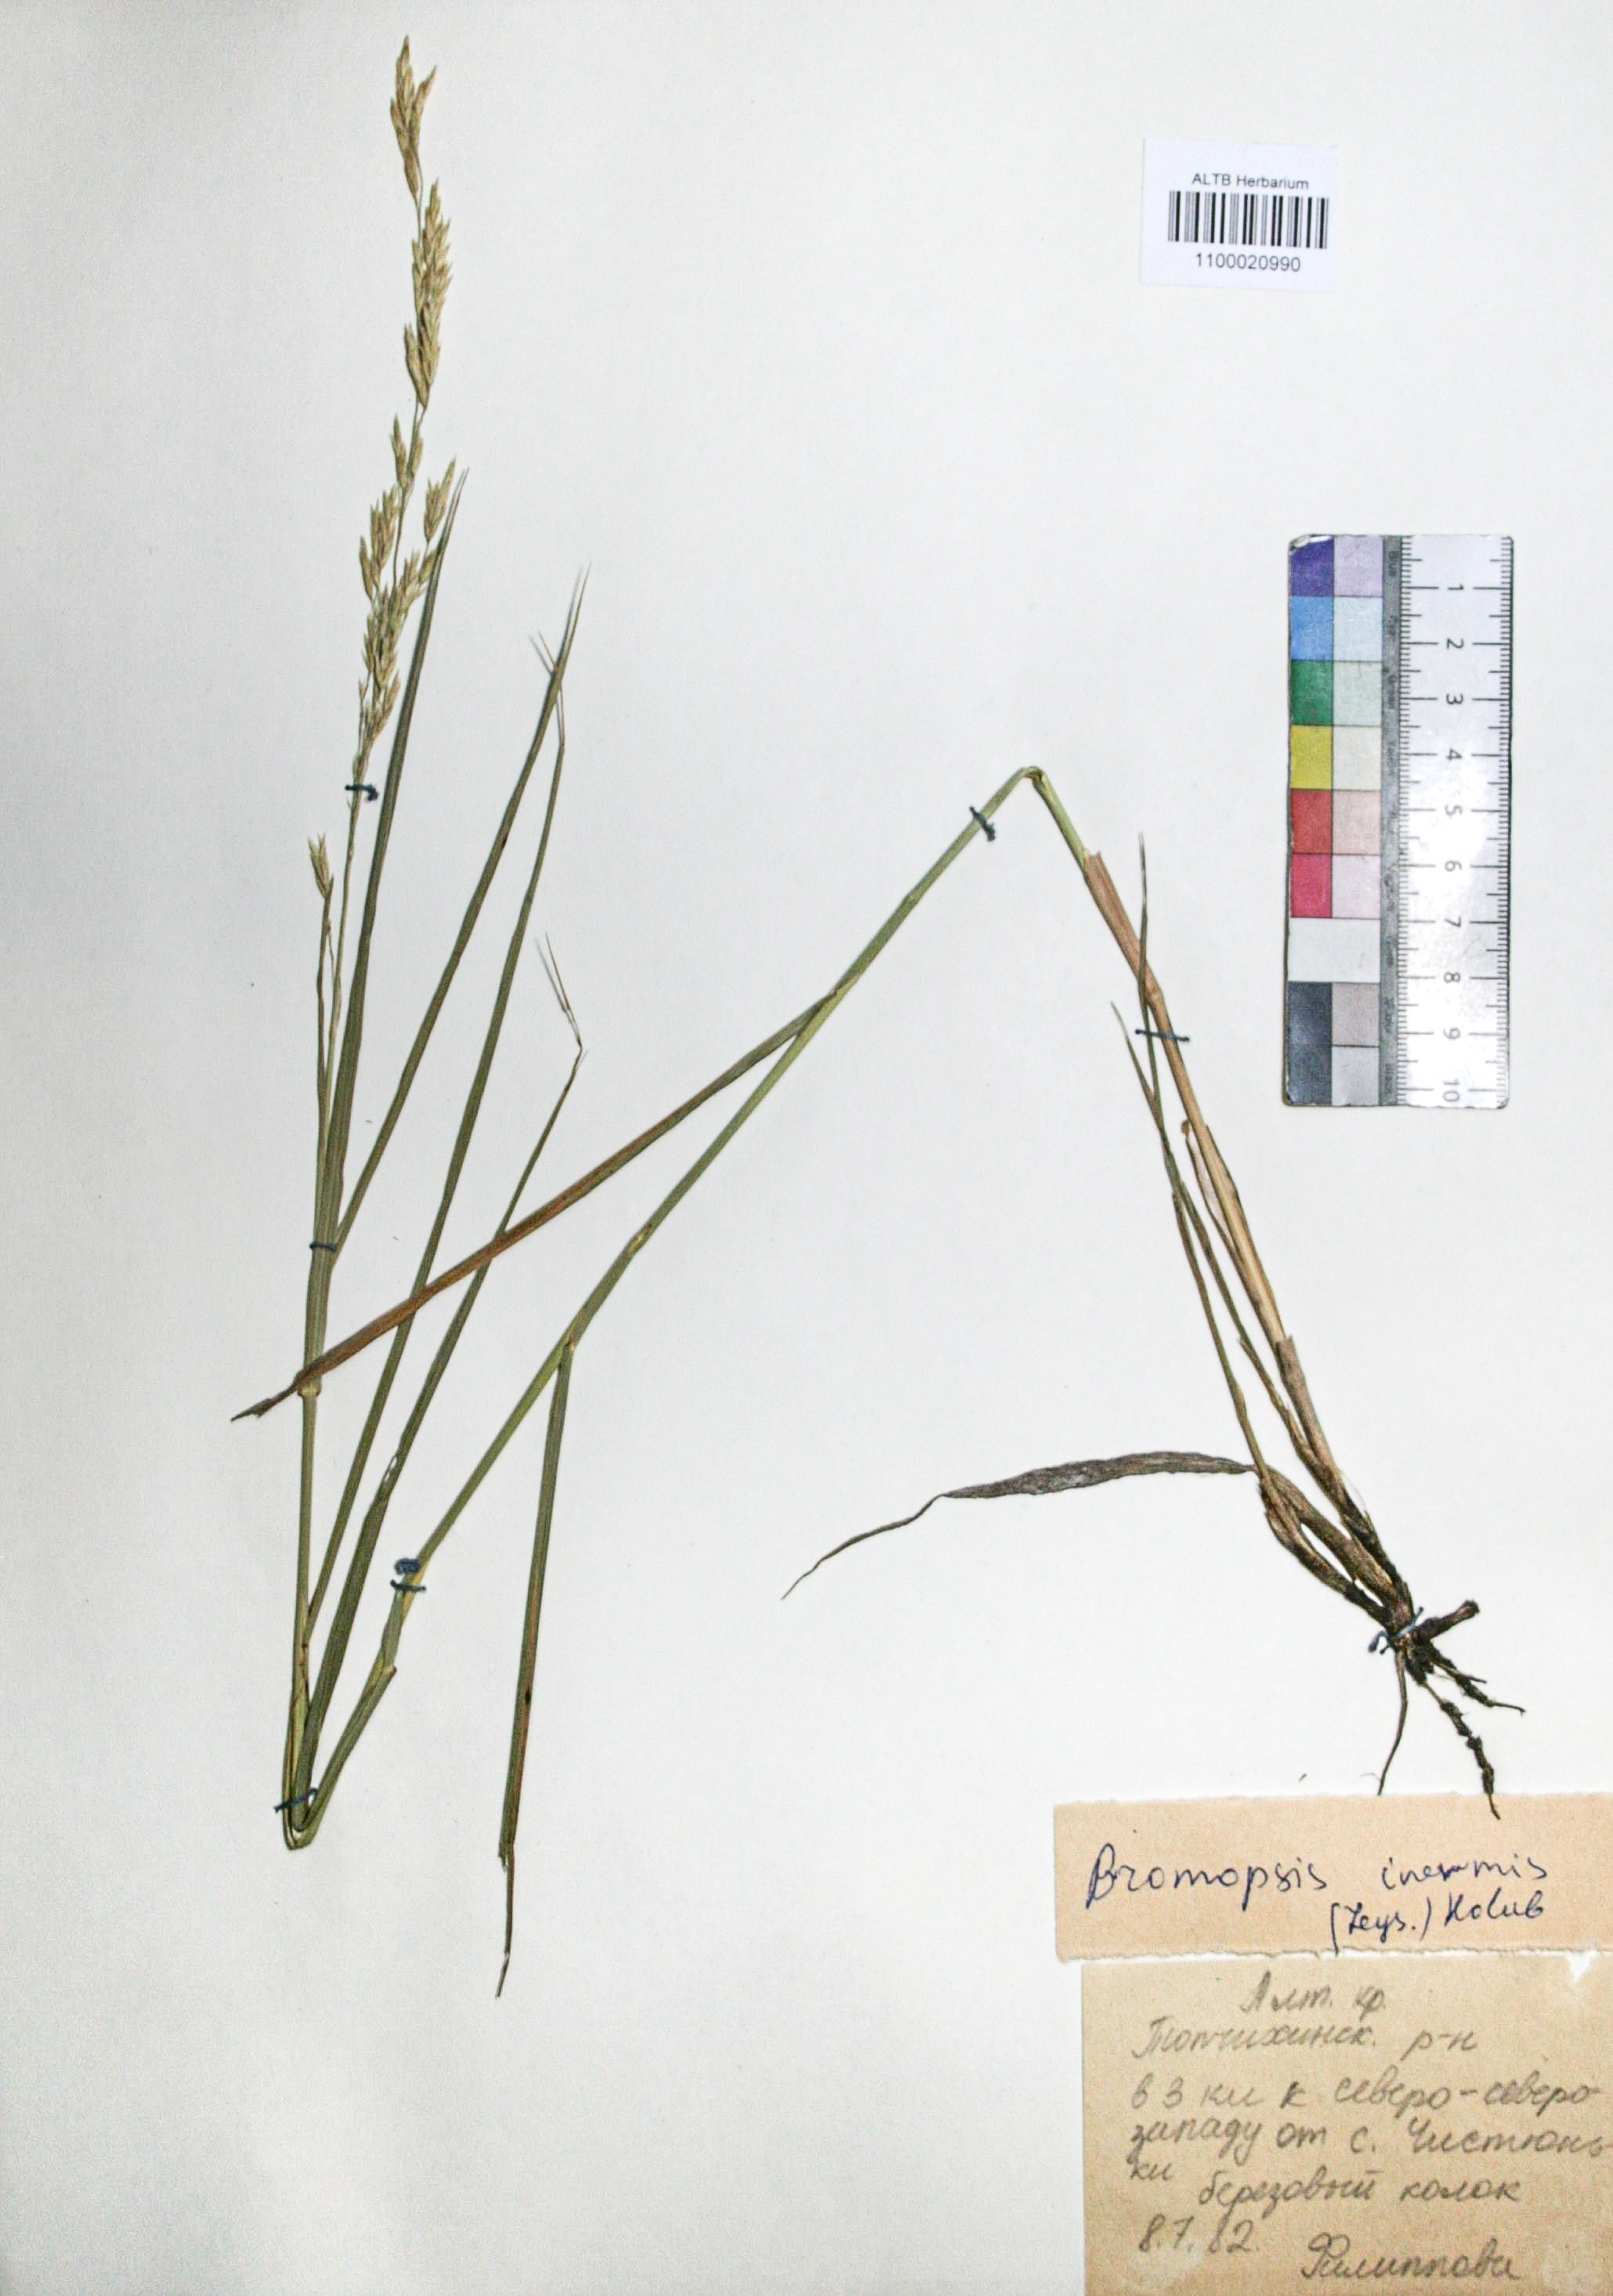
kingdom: Plantae
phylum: Tracheophyta
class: Liliopsida
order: Poales
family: Poaceae
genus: Bromus
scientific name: Bromus inermis
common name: Smooth brome
